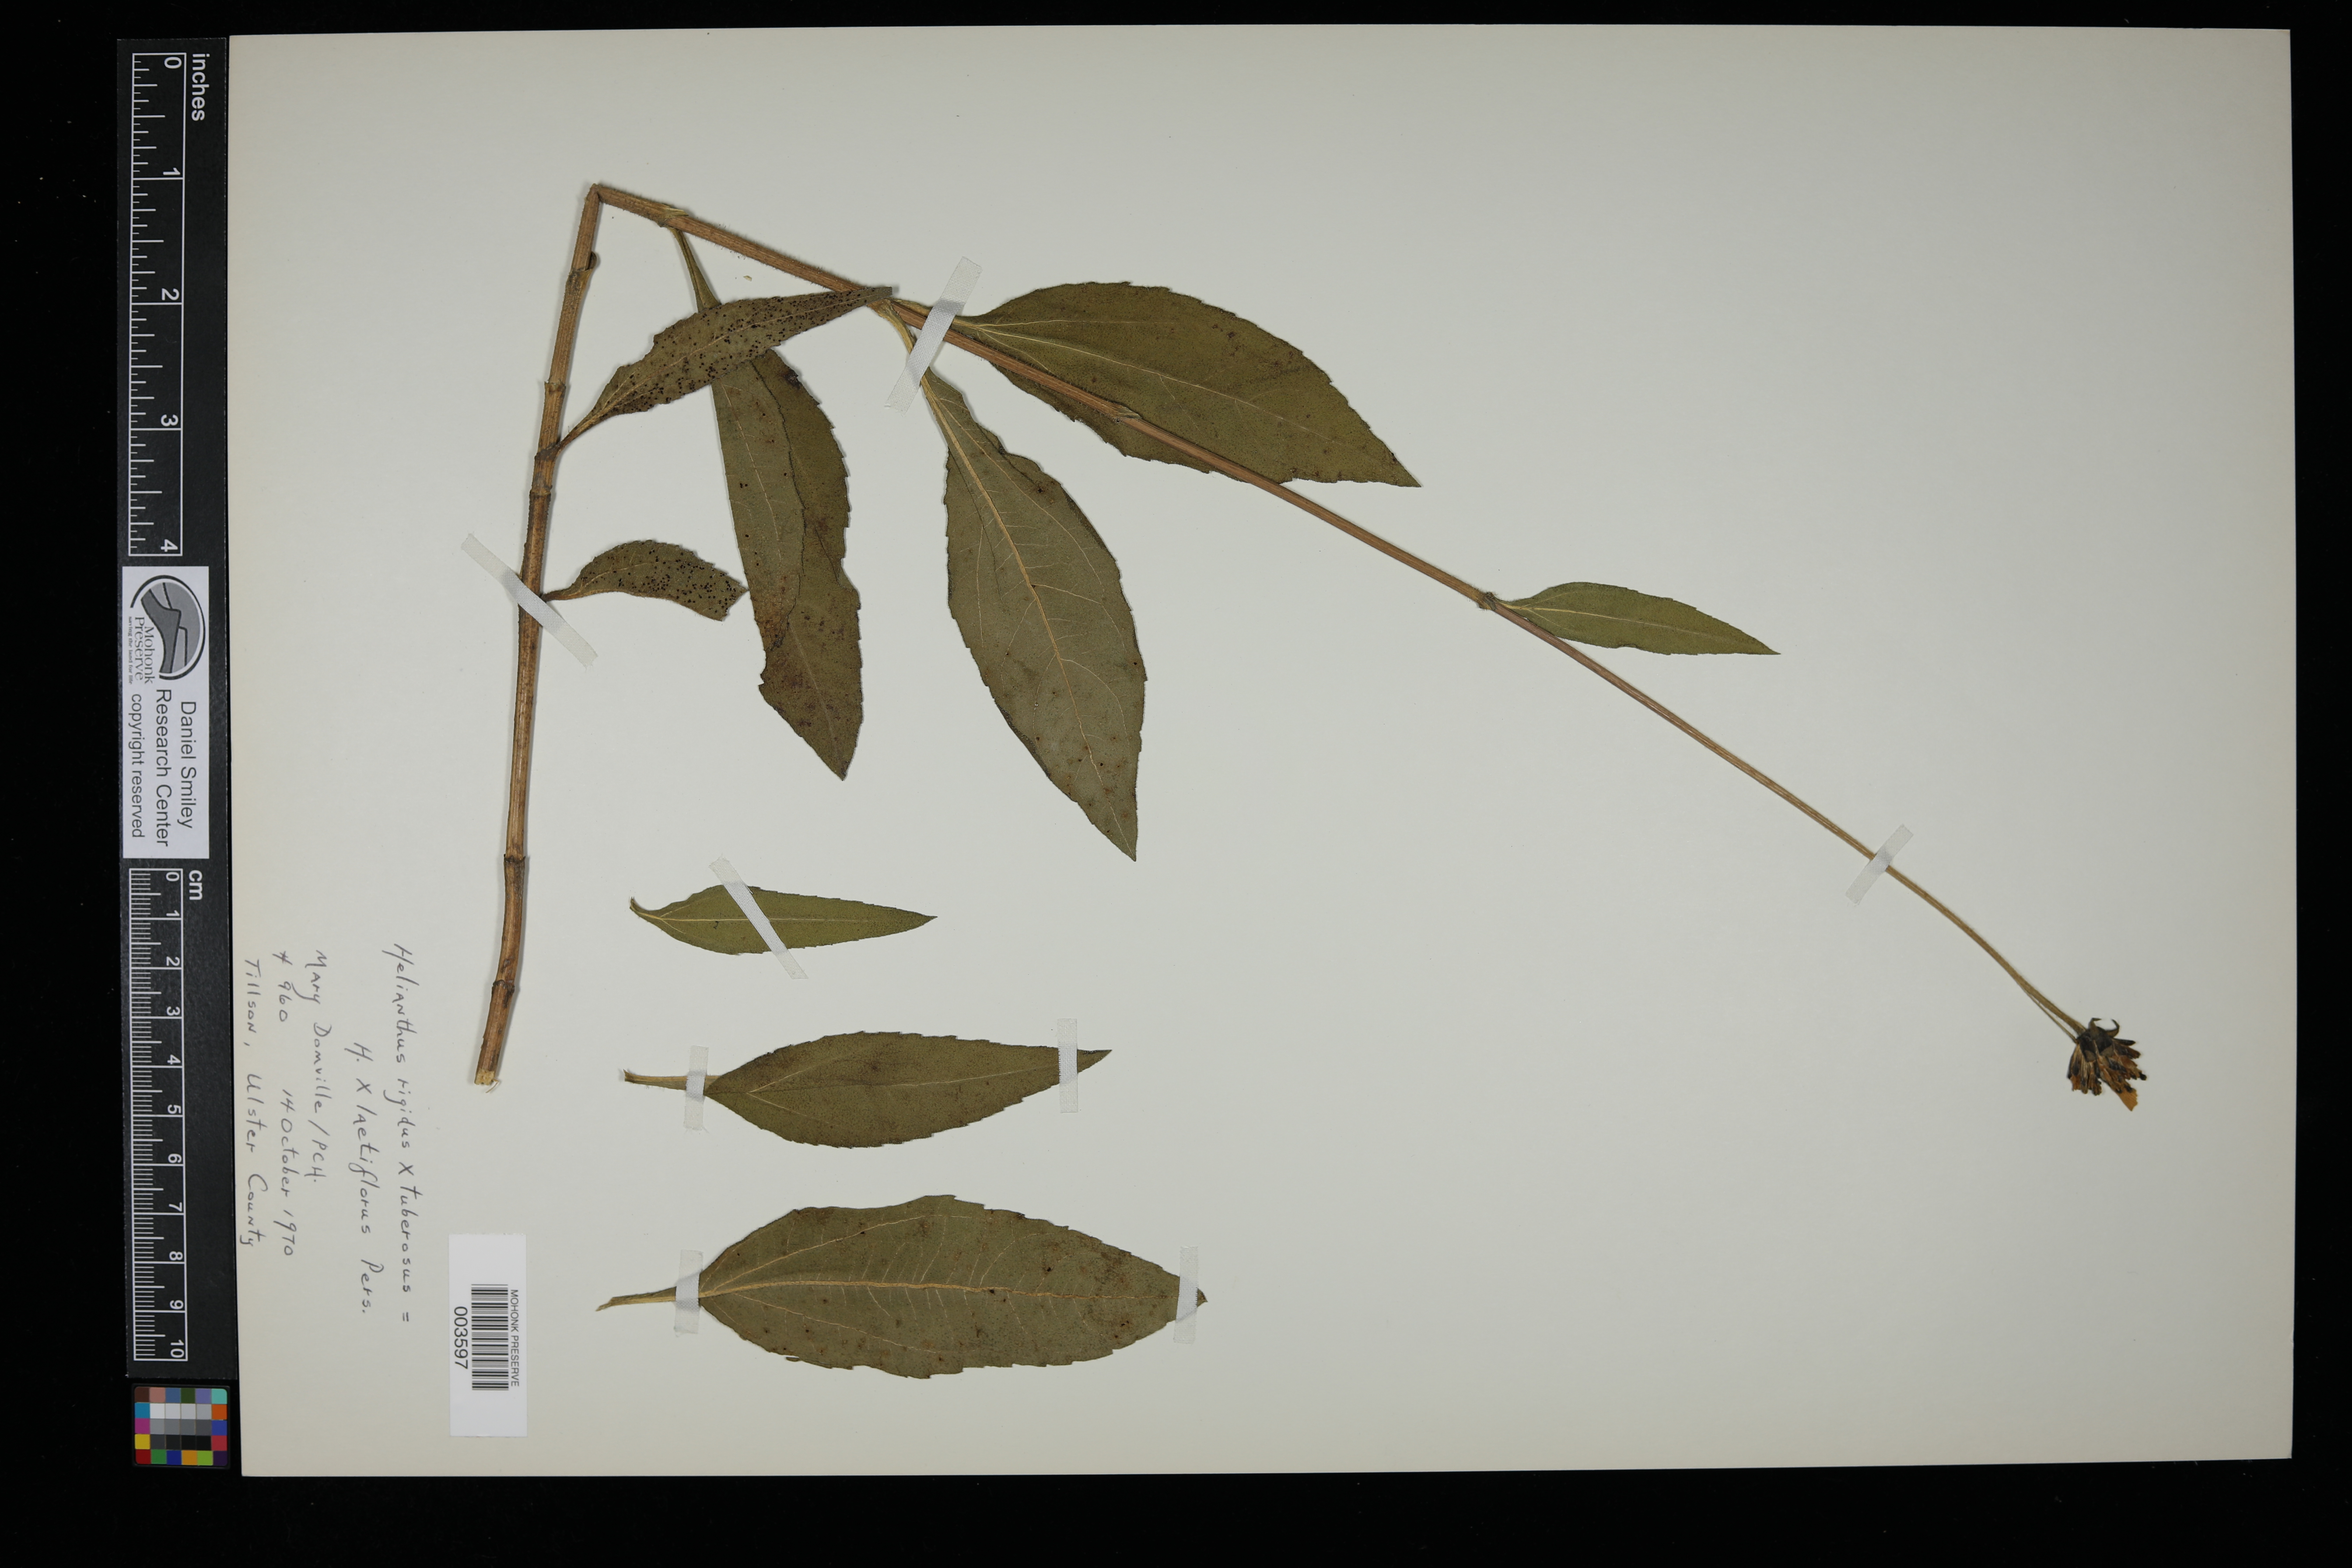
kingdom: Plantae
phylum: Tracheophyta
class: Magnoliopsida
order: Asterales
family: Asteraceae
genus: Helianthus
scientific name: Helianthus laetiflorus
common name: Perennial sunflower
